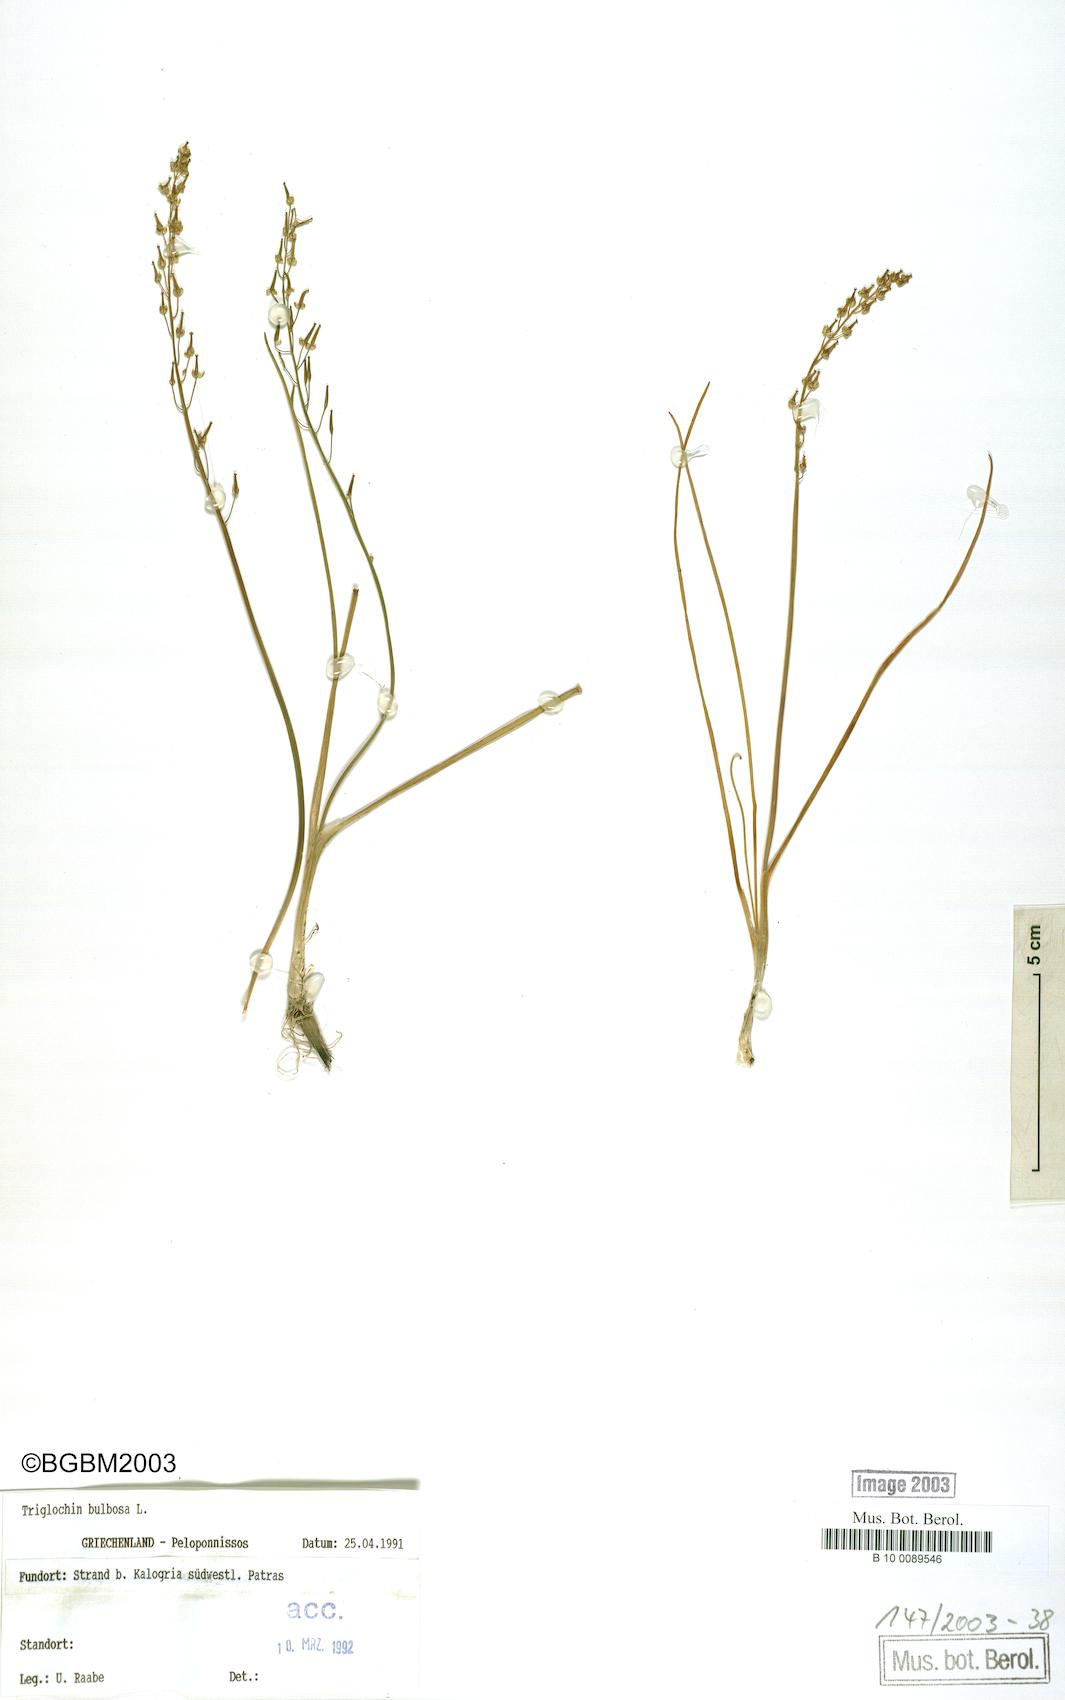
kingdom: Plantae
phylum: Tracheophyta
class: Liliopsida
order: Alismatales
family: Juncaginaceae
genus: Triglochin
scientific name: Triglochin bulbosa
